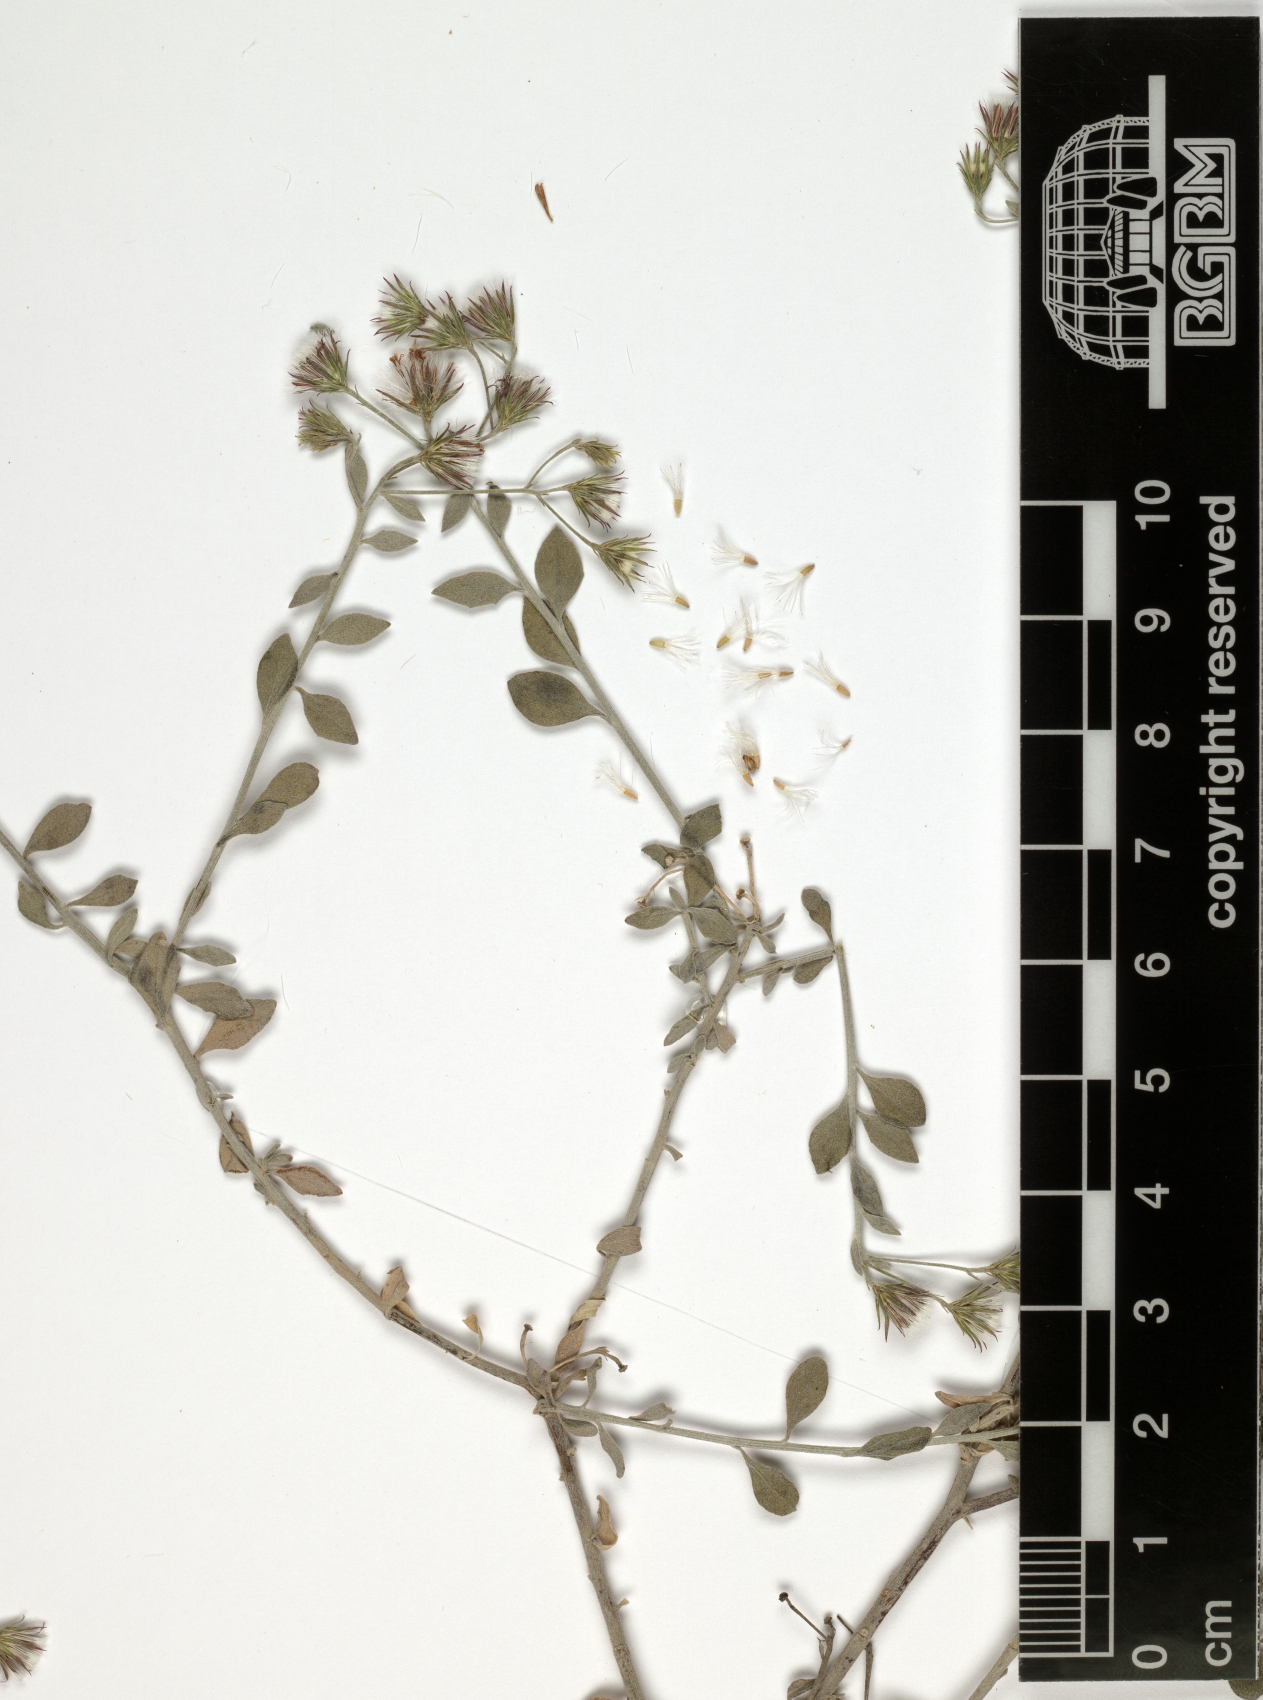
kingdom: Plantae
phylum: Tracheophyta
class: Magnoliopsida
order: Asterales
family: Asteraceae
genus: Vernonia
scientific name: Vernonia arabica
